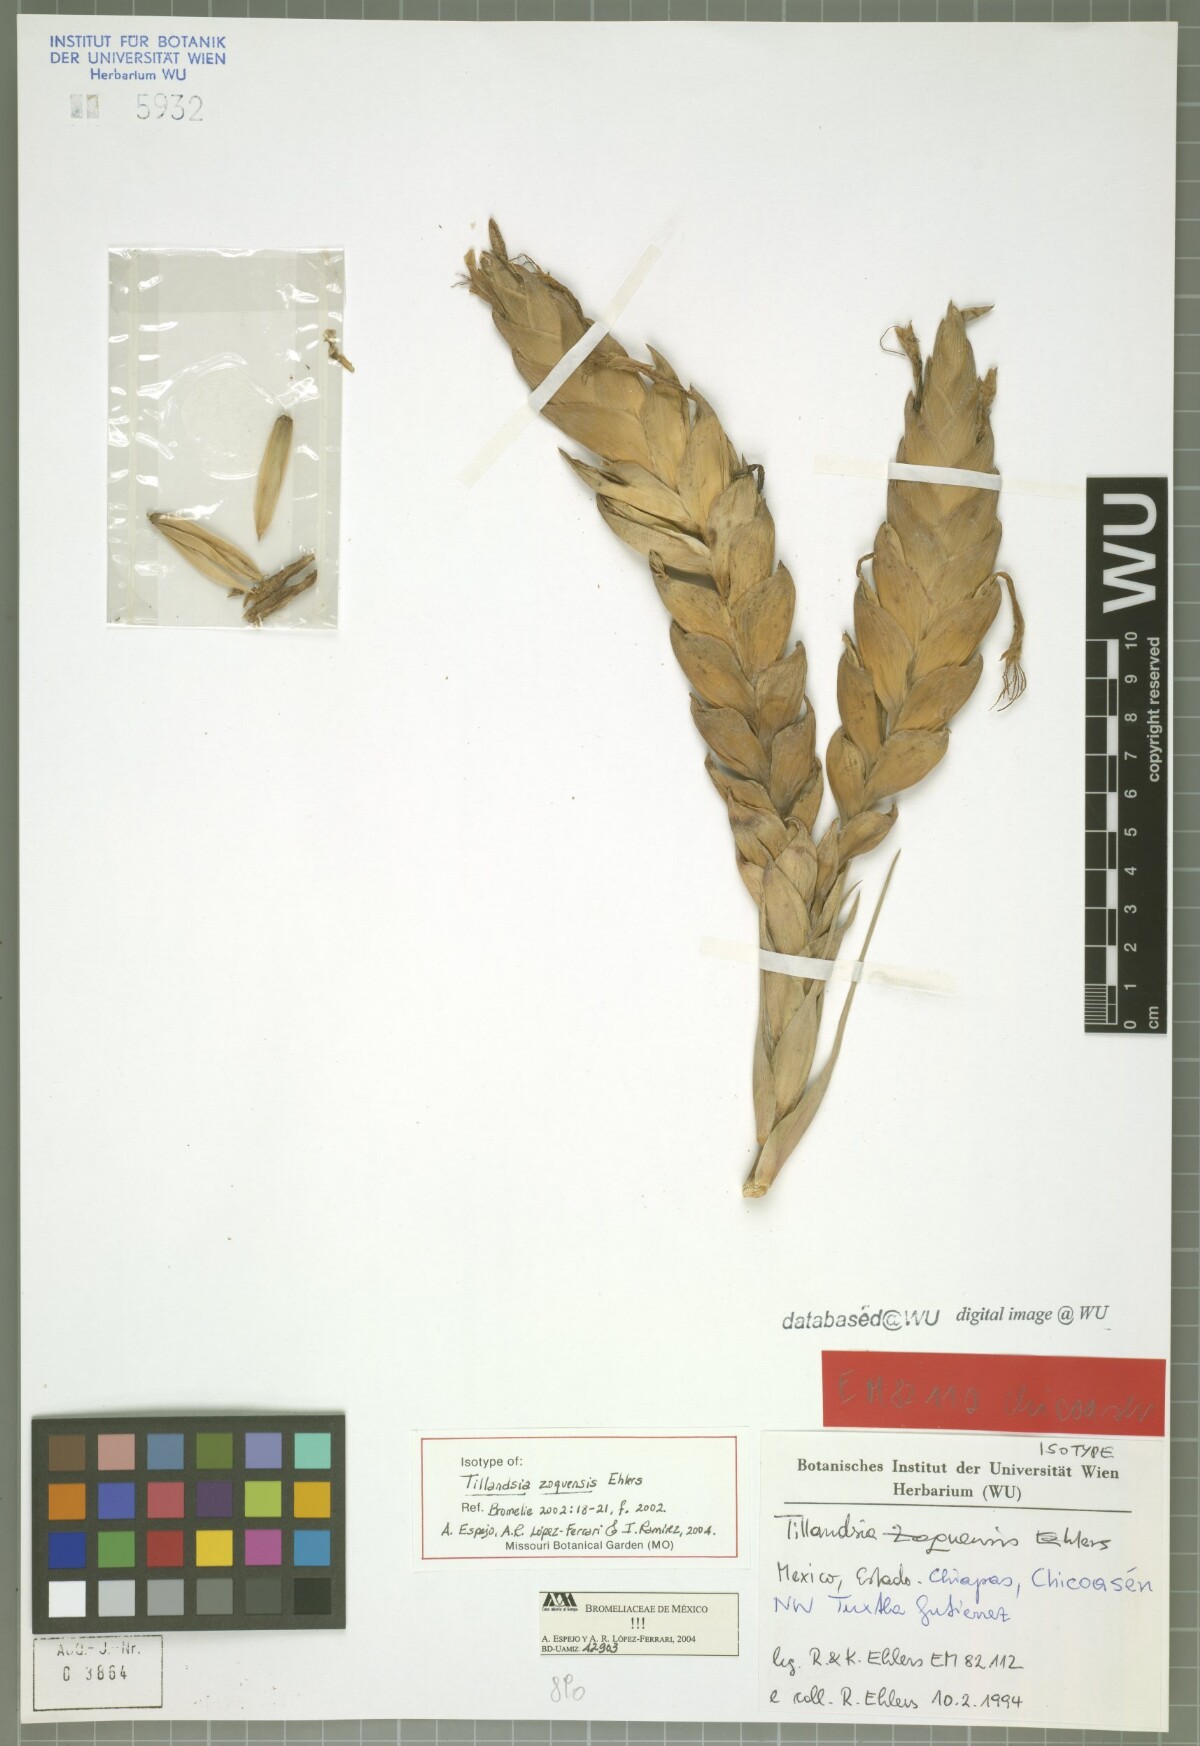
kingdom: Plantae
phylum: Tracheophyta
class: Liliopsida
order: Poales
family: Bromeliaceae
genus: Tillandsia
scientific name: Tillandsia zoquensis
